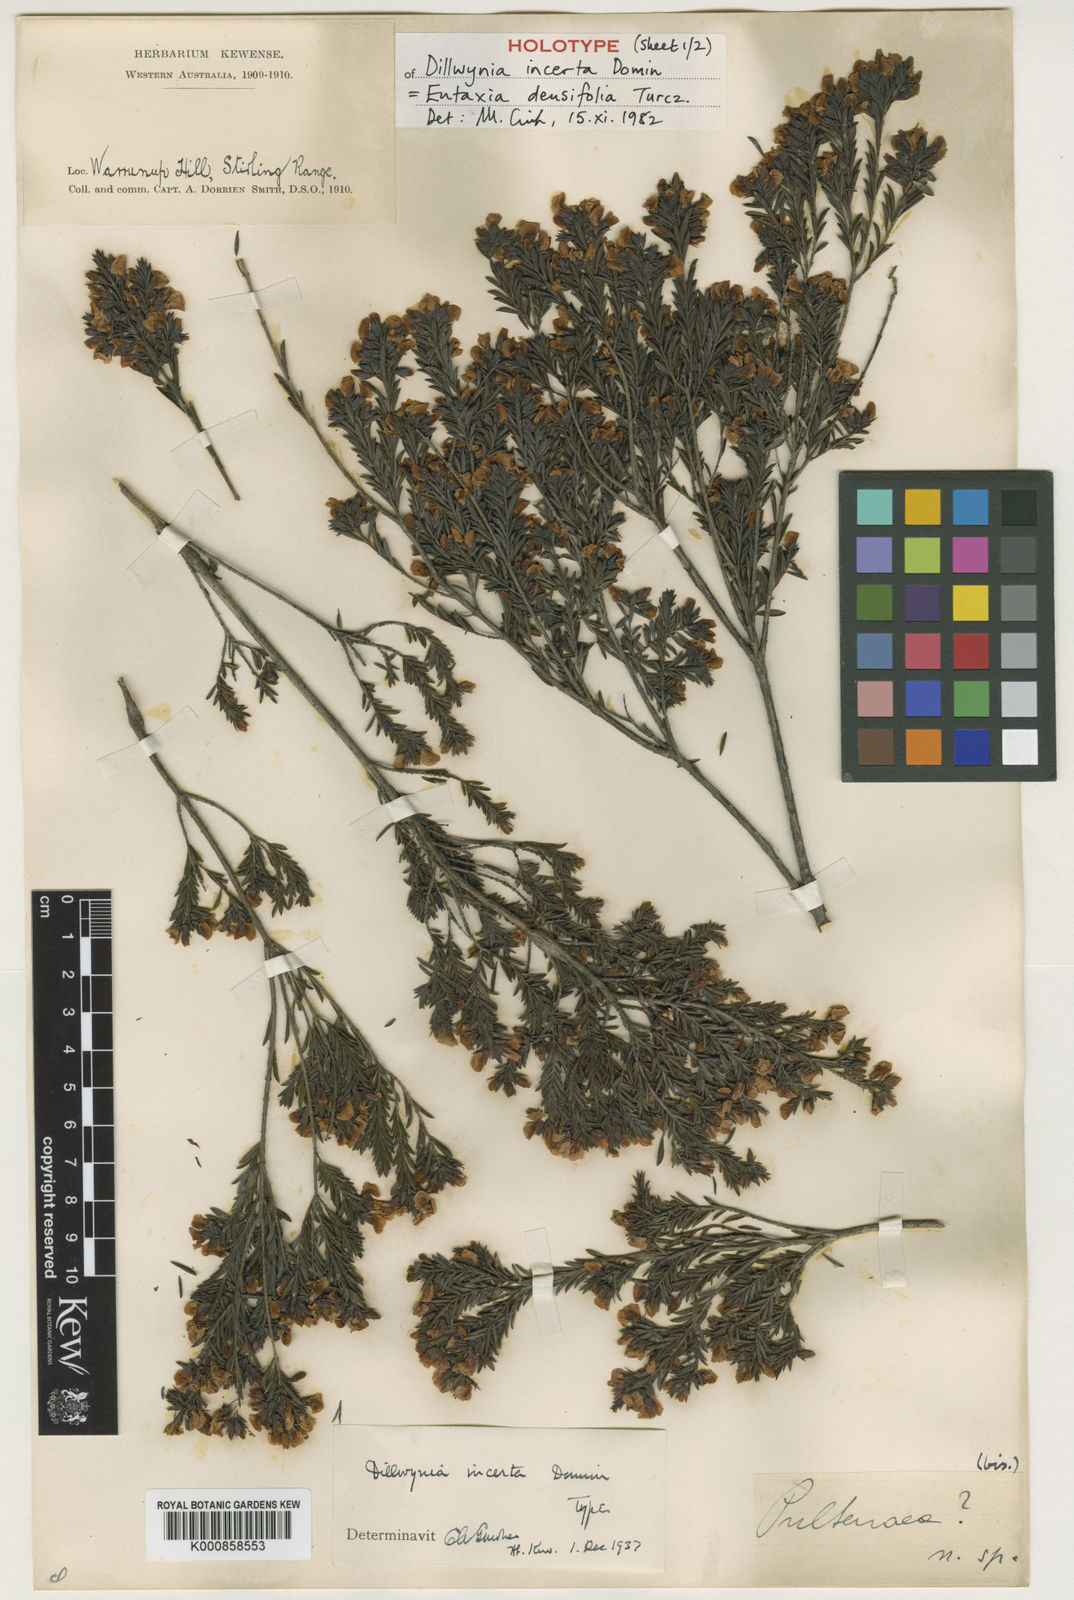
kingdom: Plantae
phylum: Tracheophyta
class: Magnoliopsida
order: Fabales
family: Fabaceae
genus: Eutaxia
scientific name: Eutaxia parvifolia
